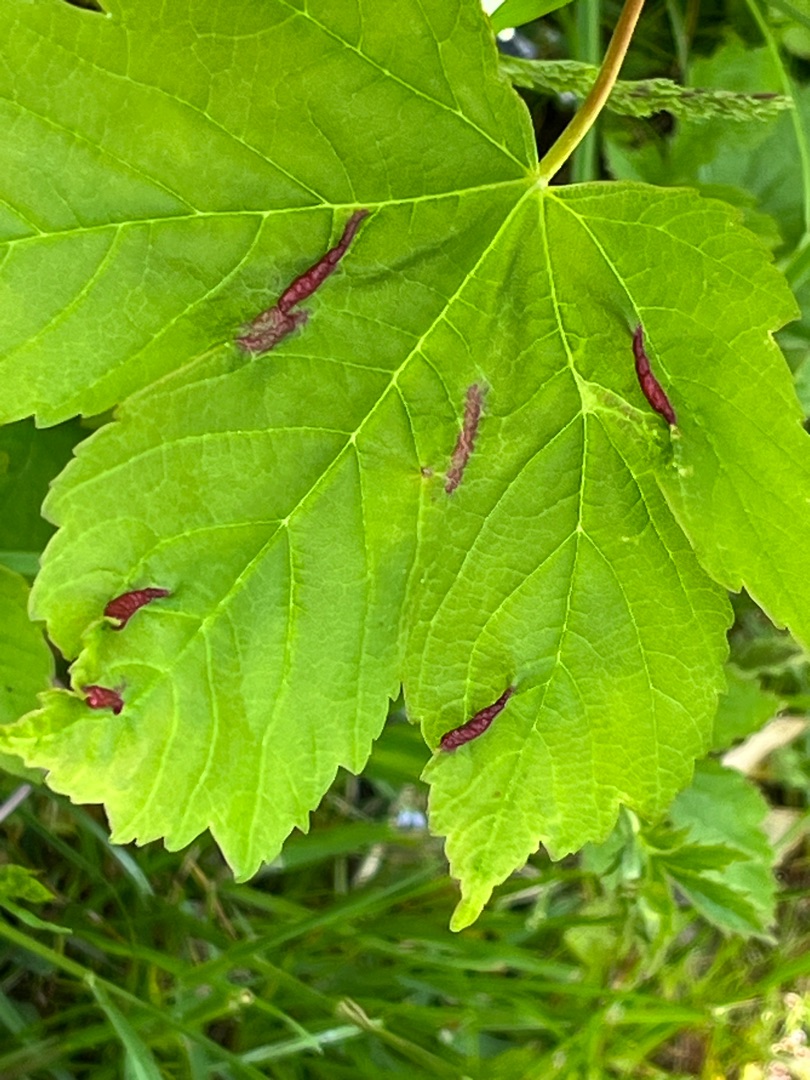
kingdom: Animalia
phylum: Arthropoda
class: Insecta
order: Diptera
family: Cecidomyiidae
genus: Contarinia
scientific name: Contarinia acerplicans
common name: Ahornvulstgalmyg
